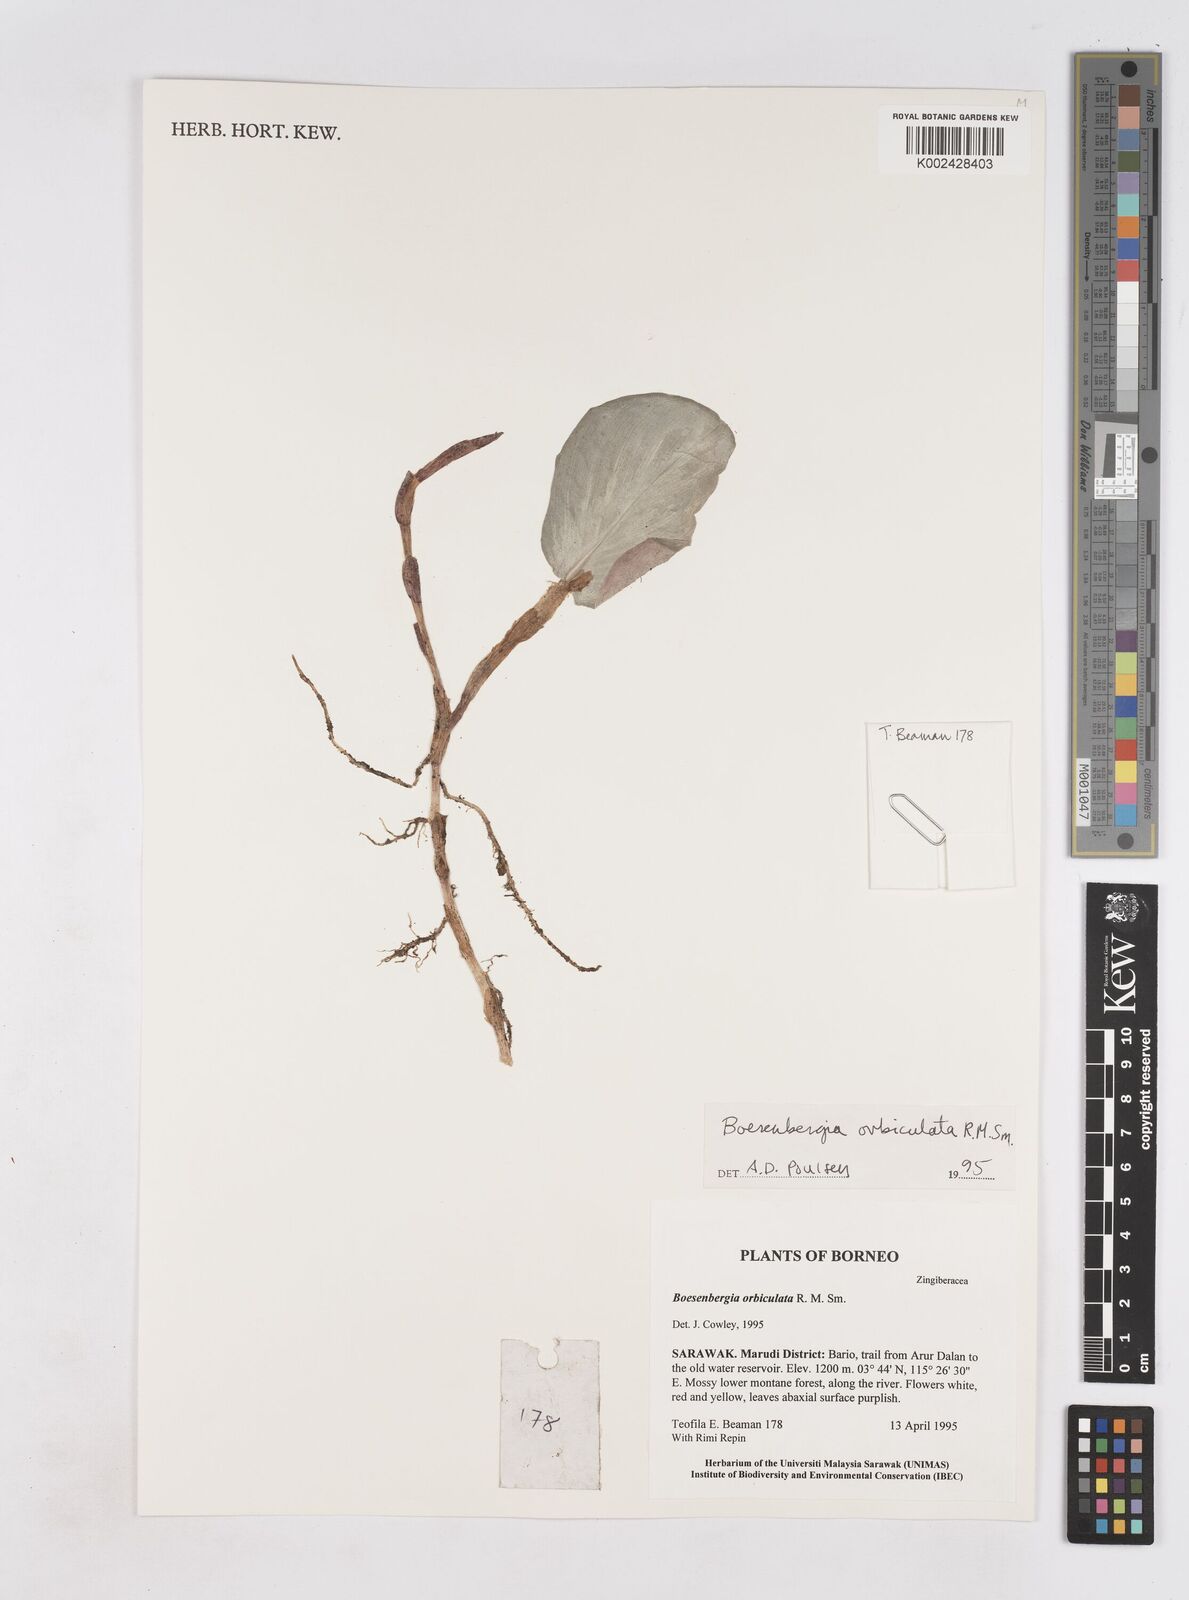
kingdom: Plantae
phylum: Tracheophyta
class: Liliopsida
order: Zingiberales
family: Zingiberaceae
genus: Boesenbergia
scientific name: Boesenbergia orbiculata
